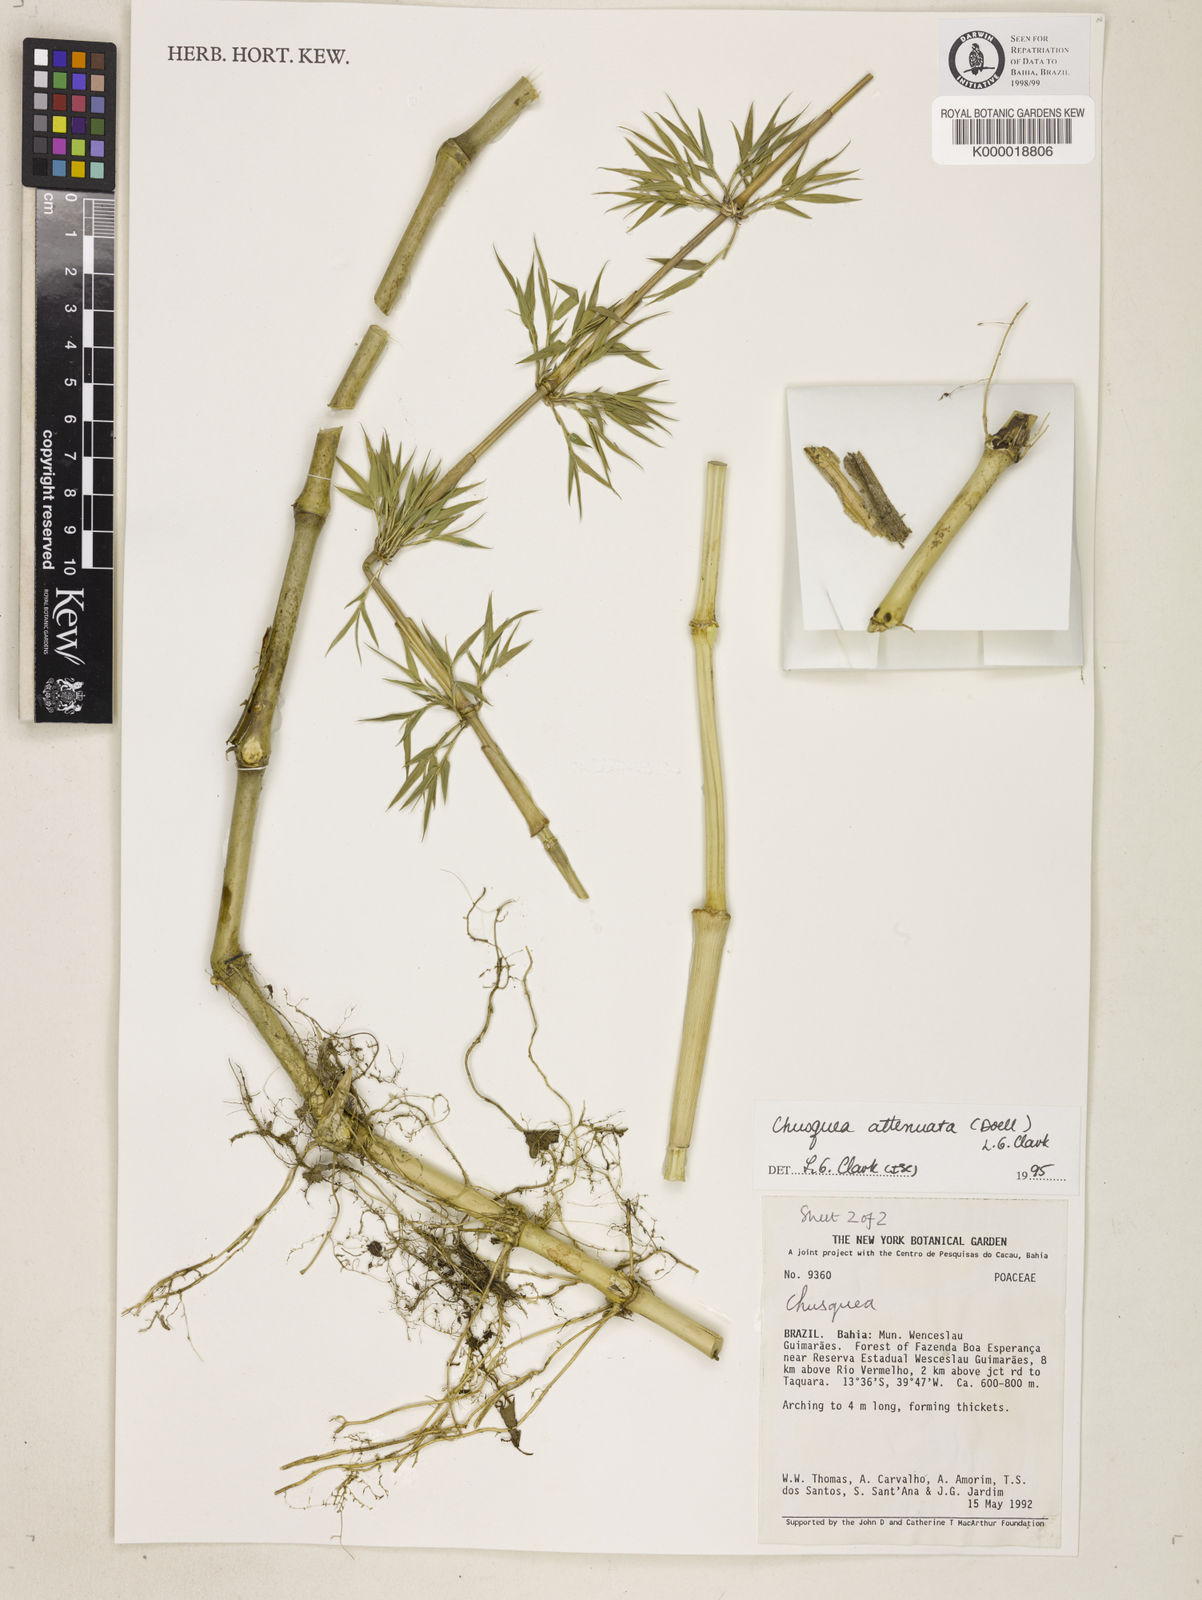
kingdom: Plantae
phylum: Tracheophyta
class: Liliopsida
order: Poales
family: Poaceae
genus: Chusquea
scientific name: Chusquea parviligulata
